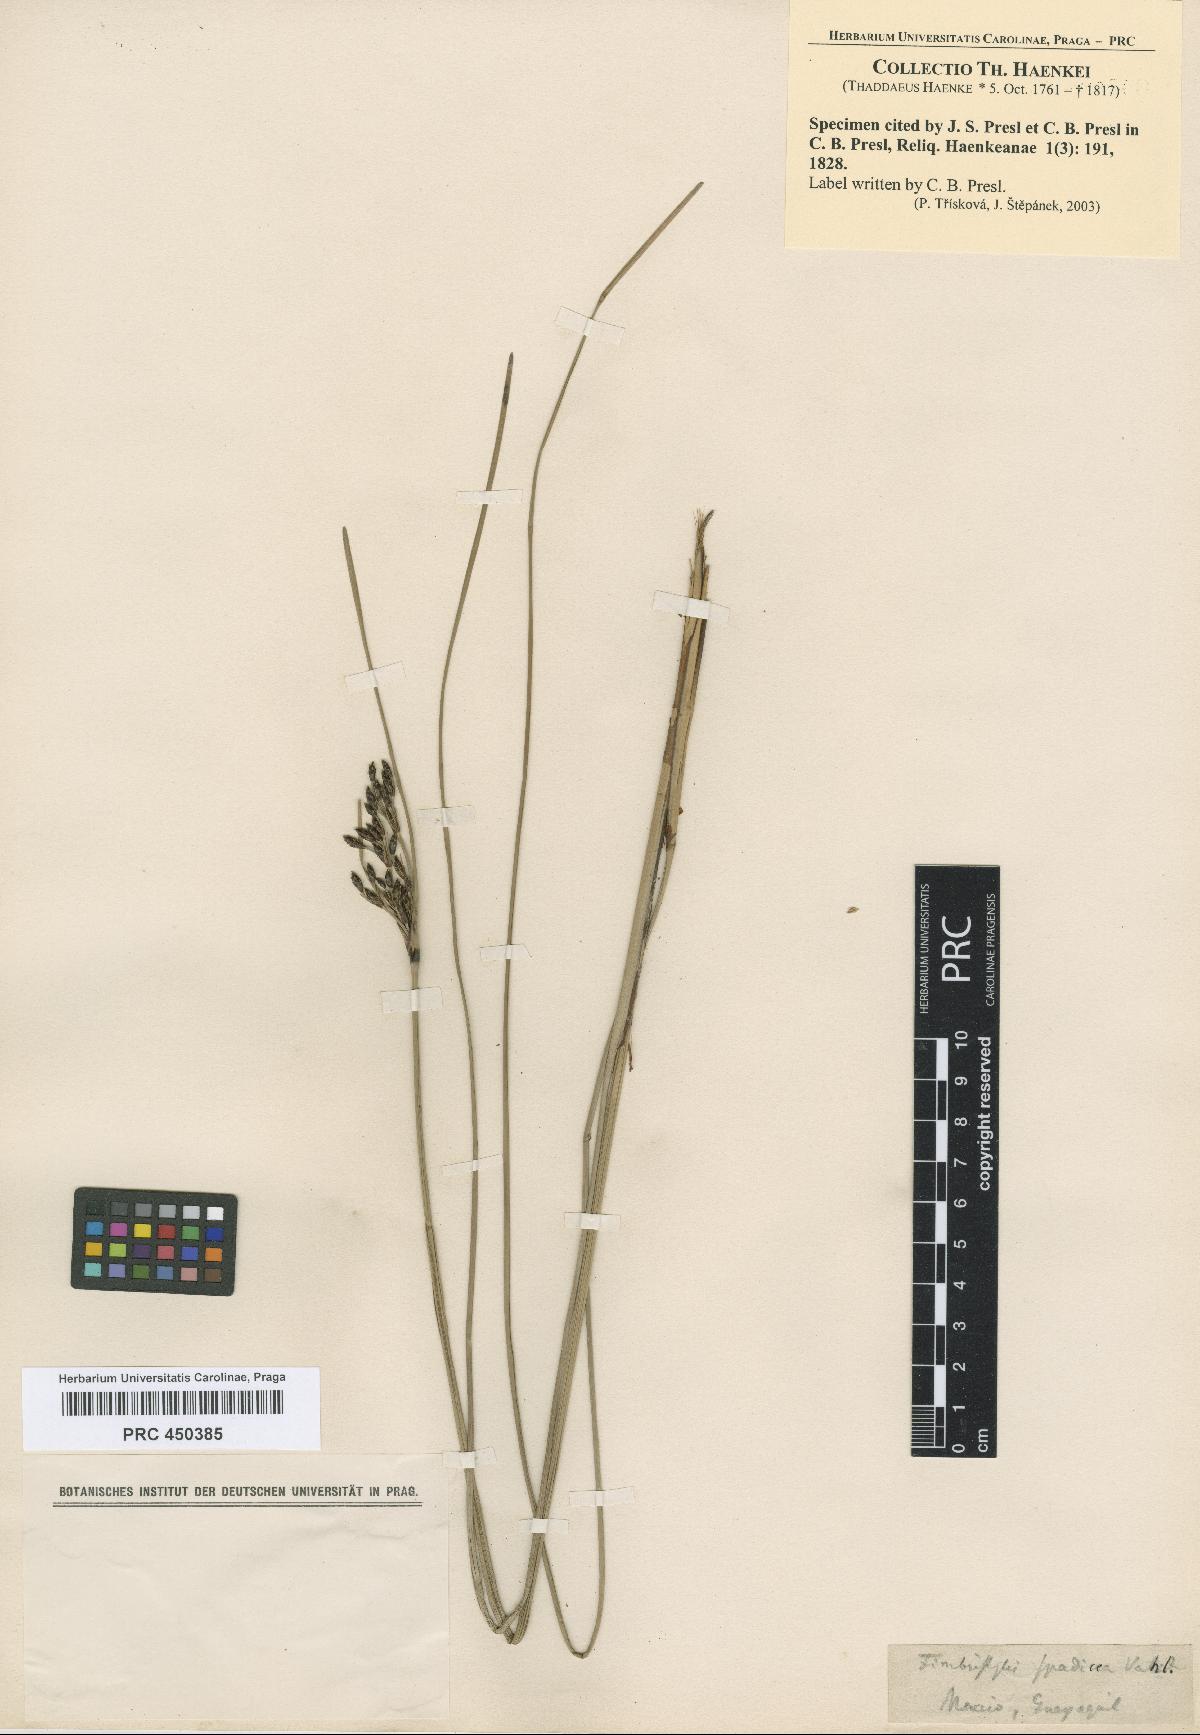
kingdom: Plantae
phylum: Tracheophyta
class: Liliopsida
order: Poales
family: Cyperaceae
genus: Fimbristylis
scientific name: Fimbristylis spadicea
